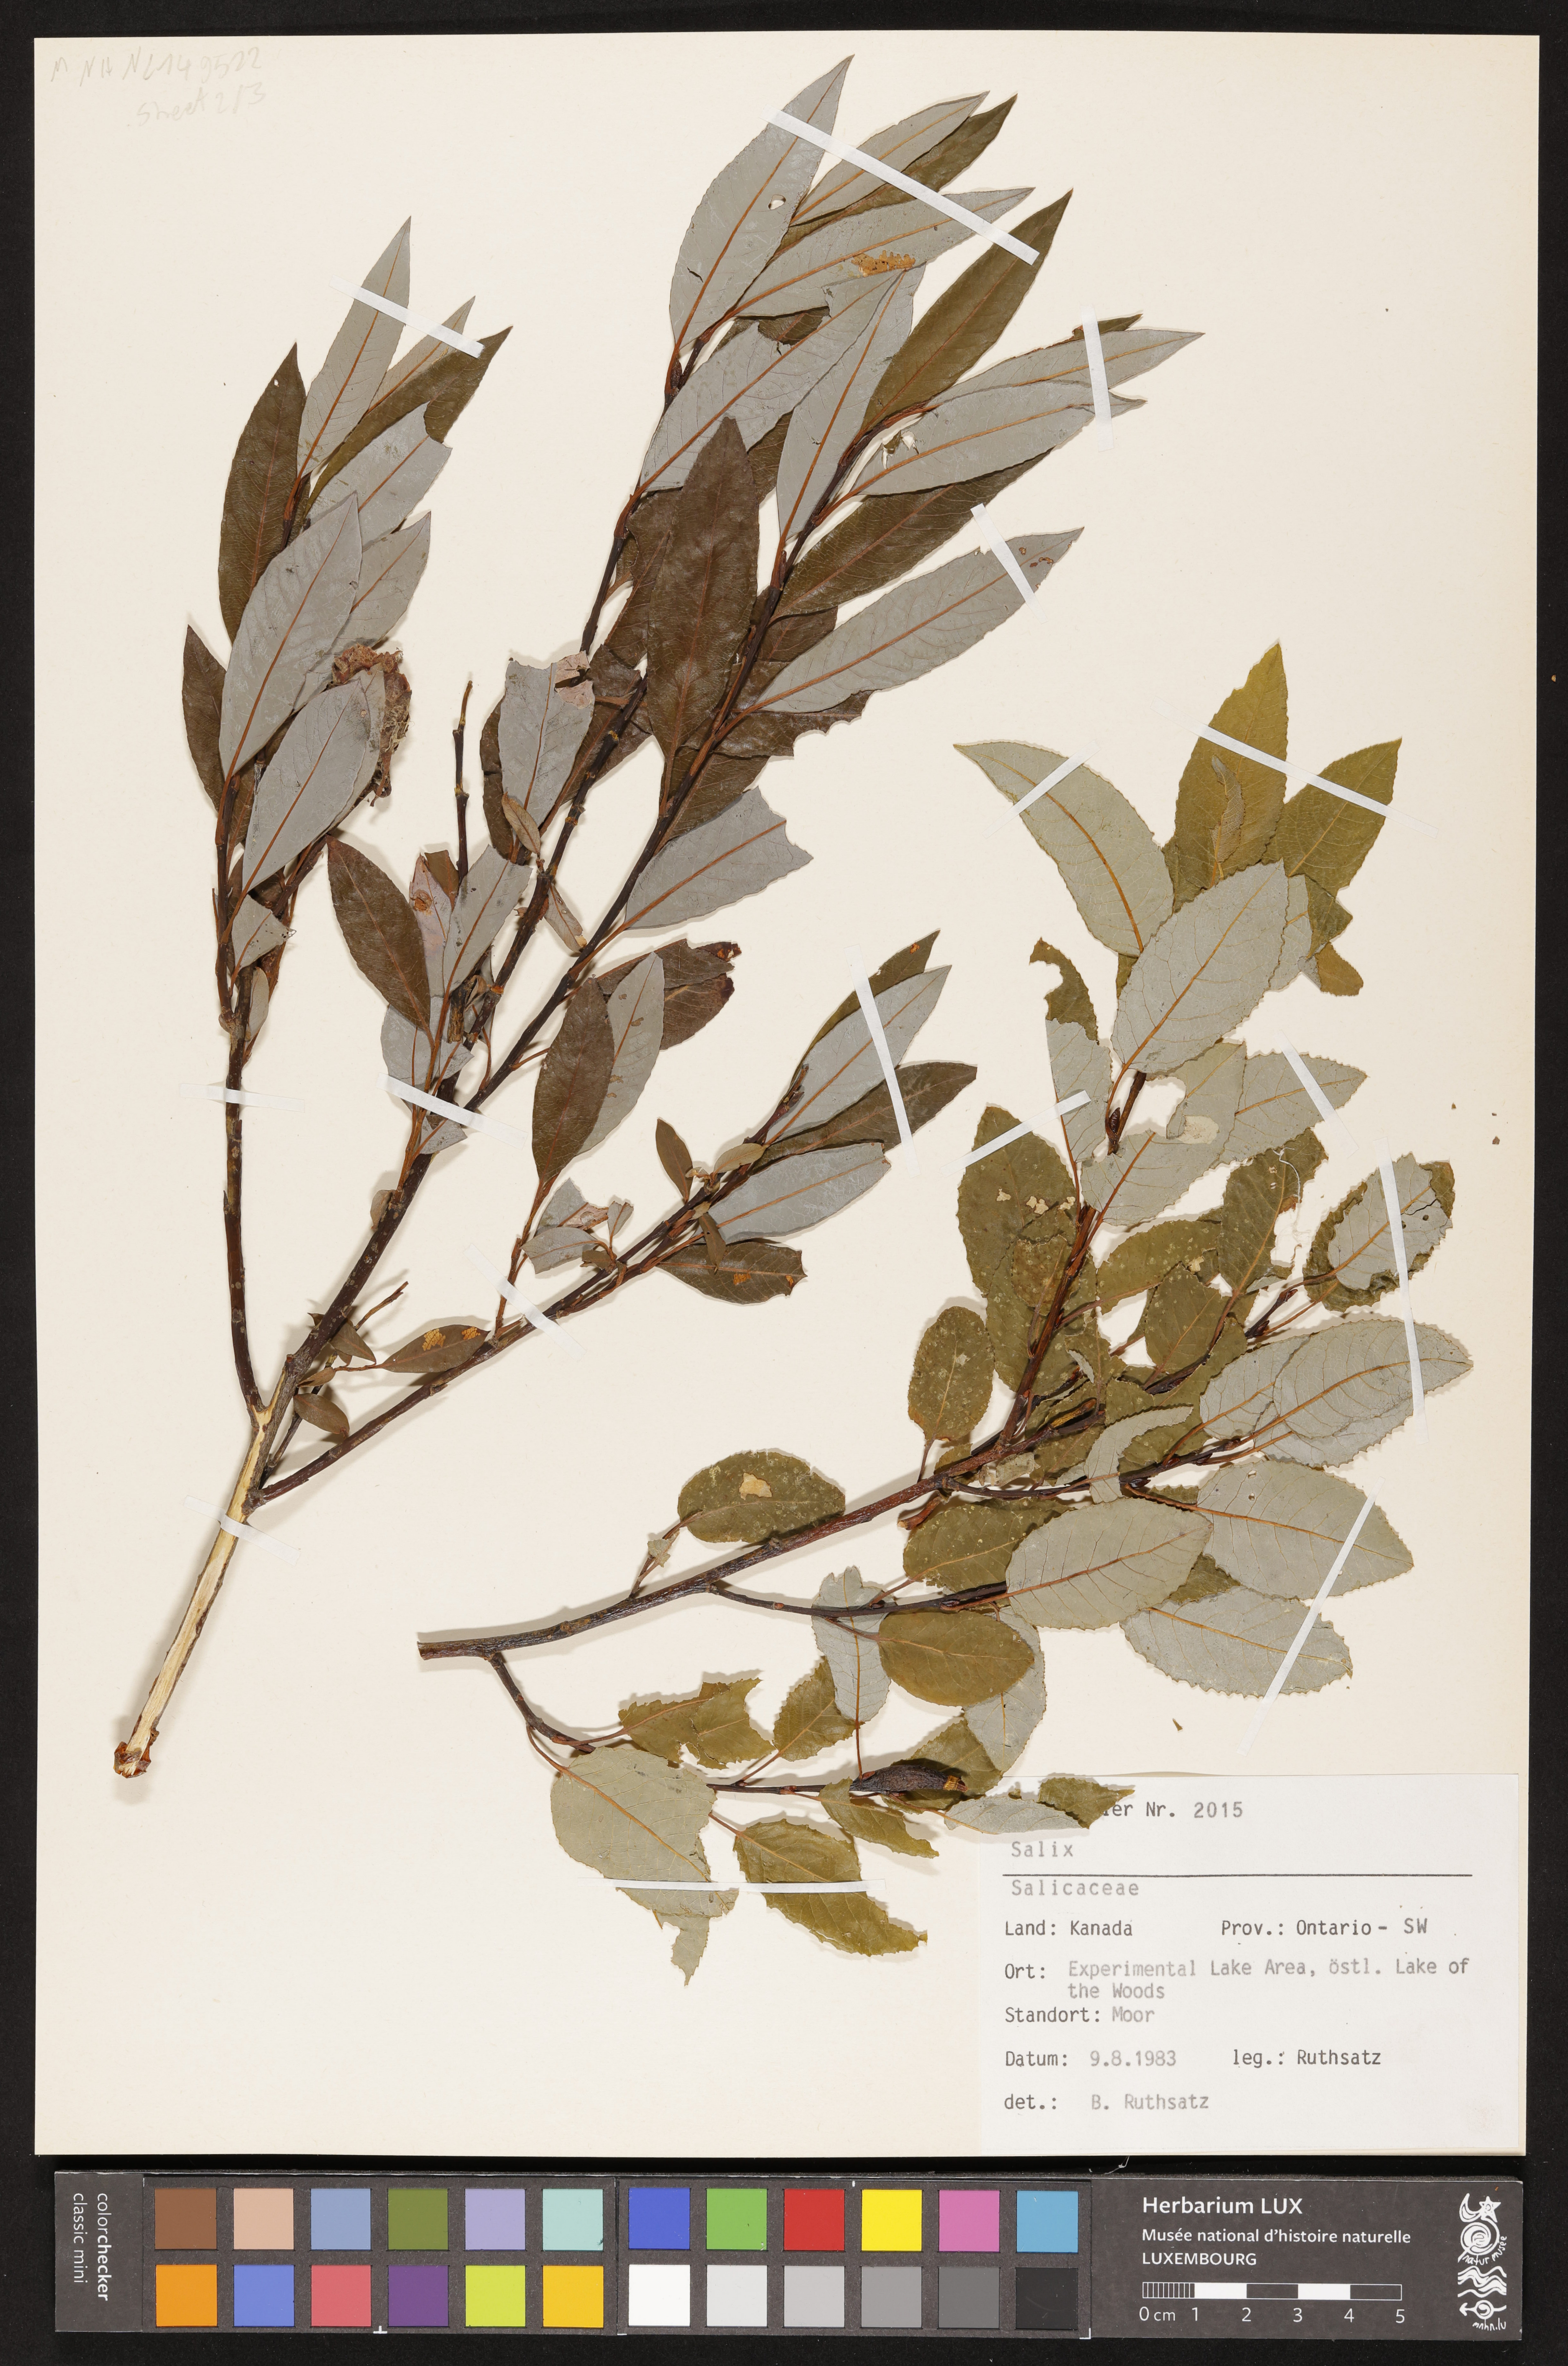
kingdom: Plantae
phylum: Tracheophyta
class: Magnoliopsida
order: Malpighiales
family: Salicaceae
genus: Salix
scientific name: Salix
